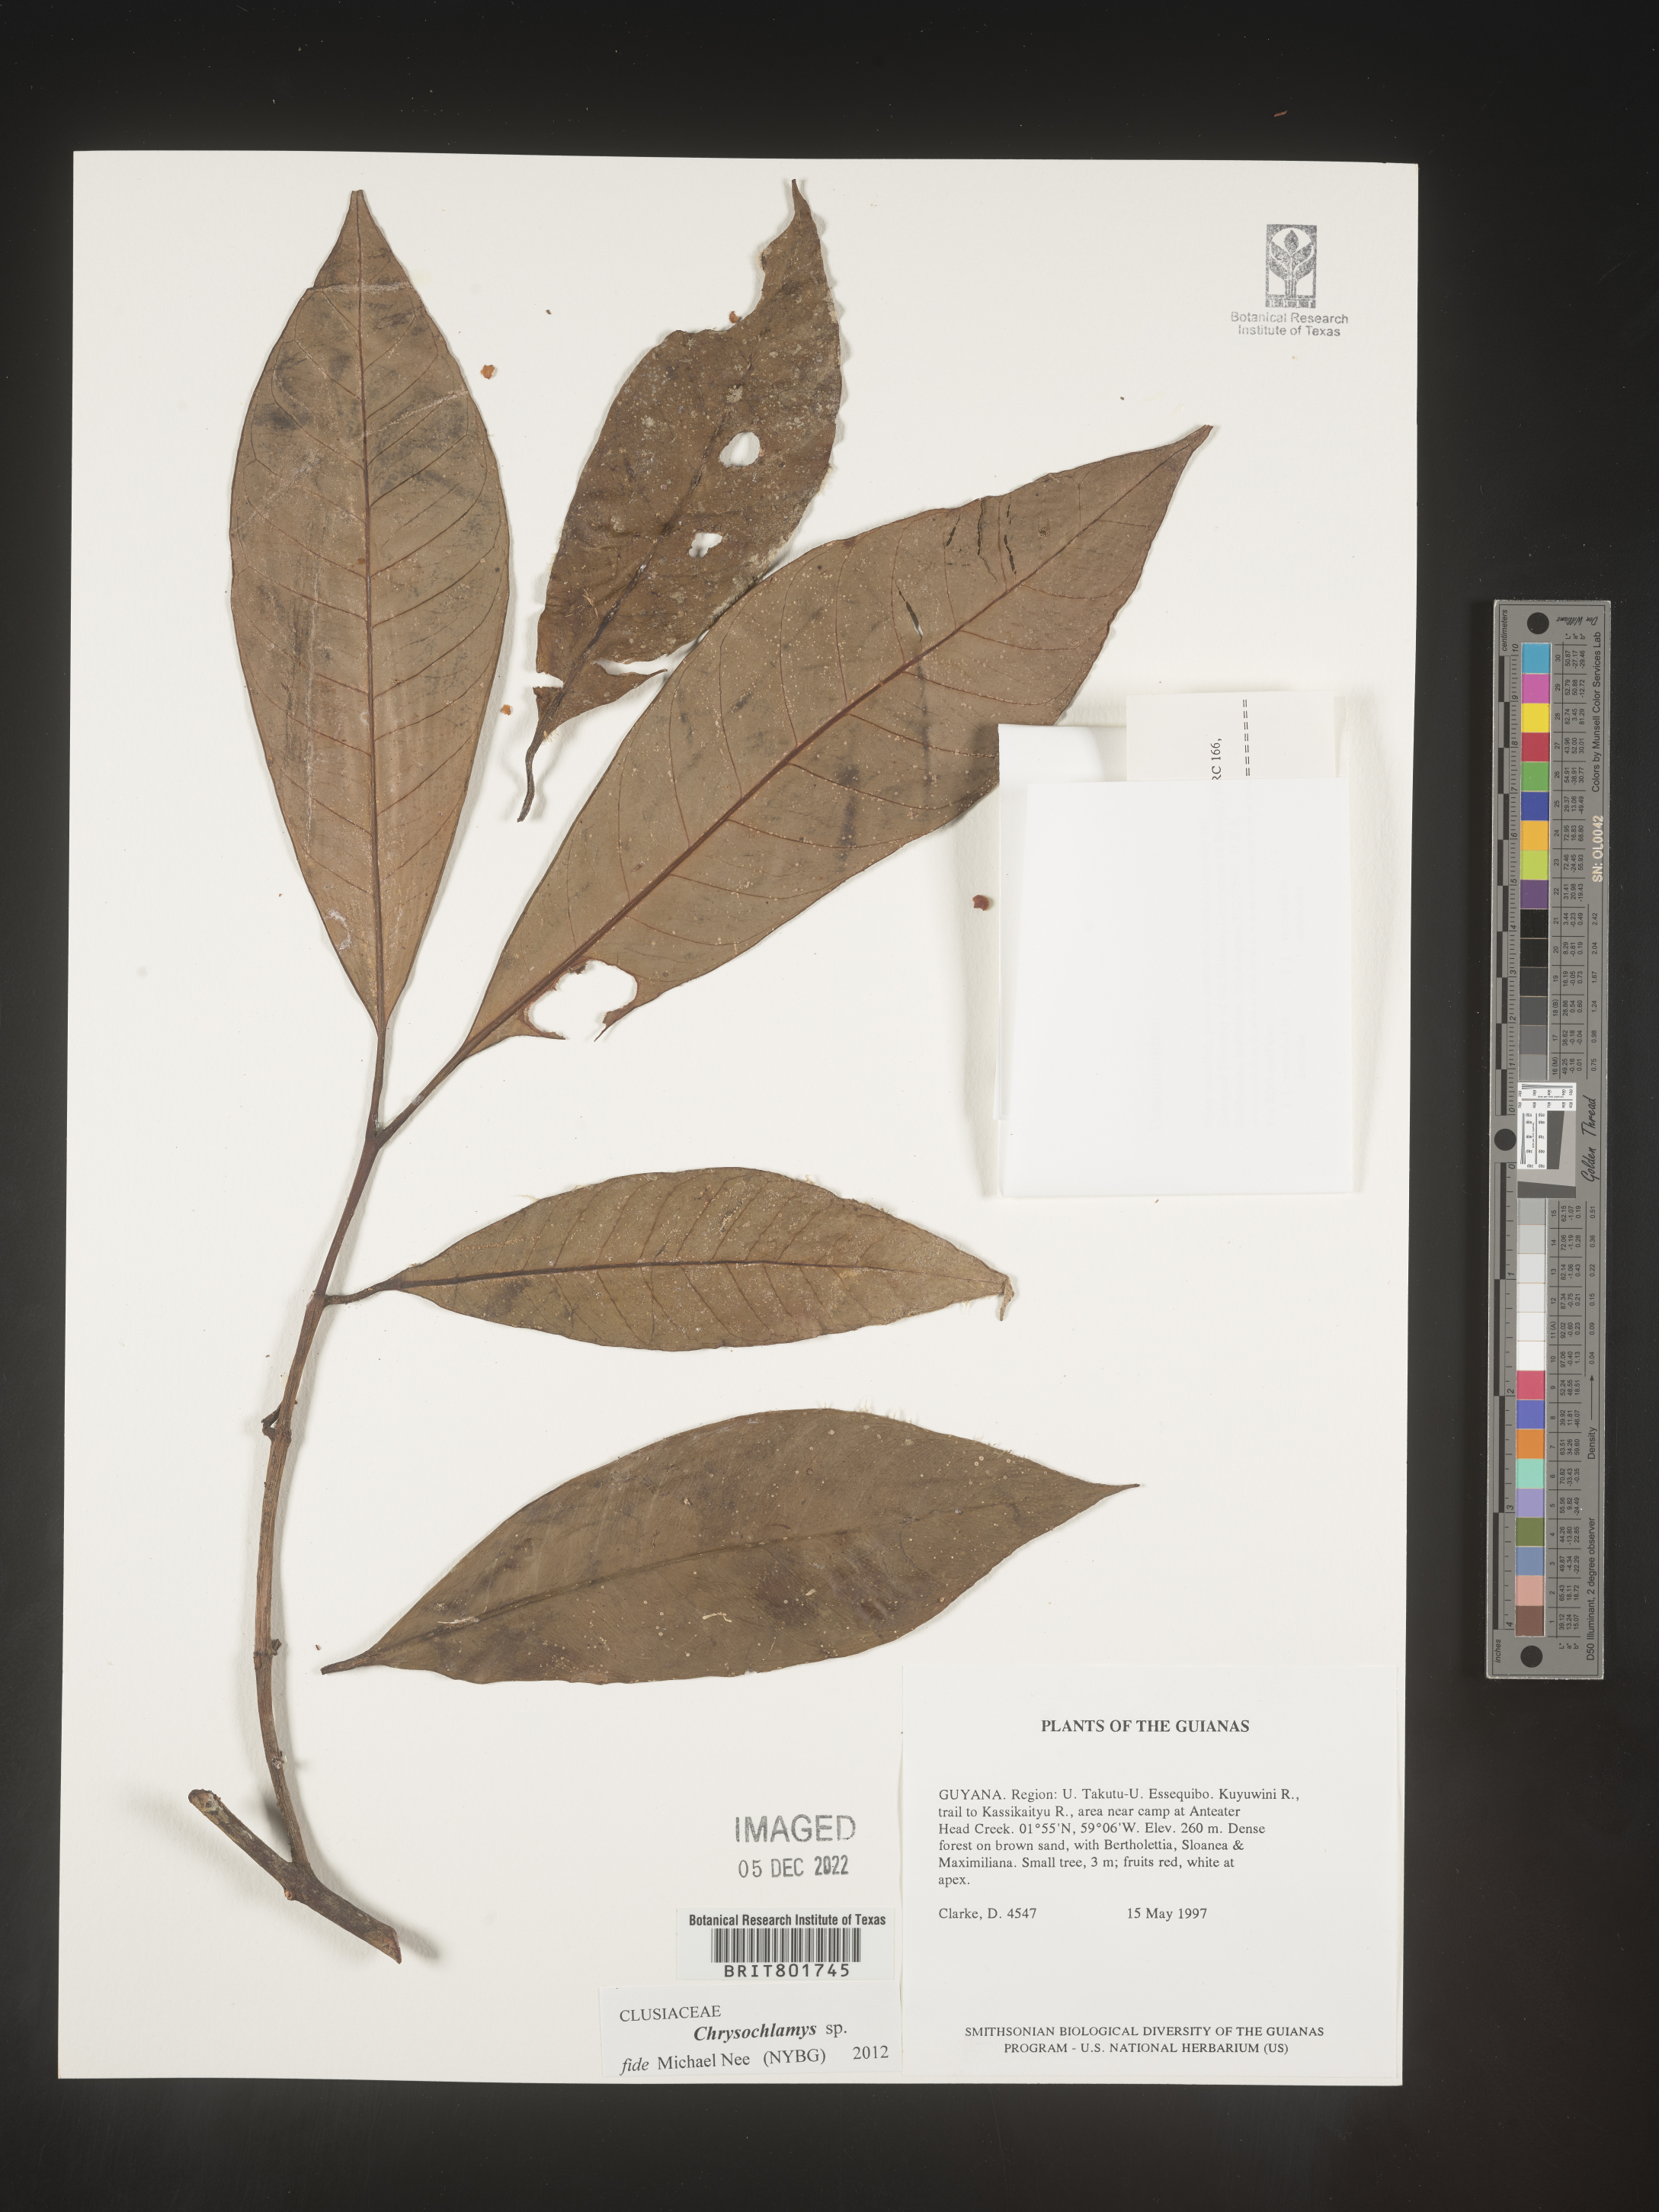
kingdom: Plantae
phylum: Tracheophyta
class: Magnoliopsida
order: Malpighiales
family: Clusiaceae
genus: Chrysochlamys
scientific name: Chrysochlamys
